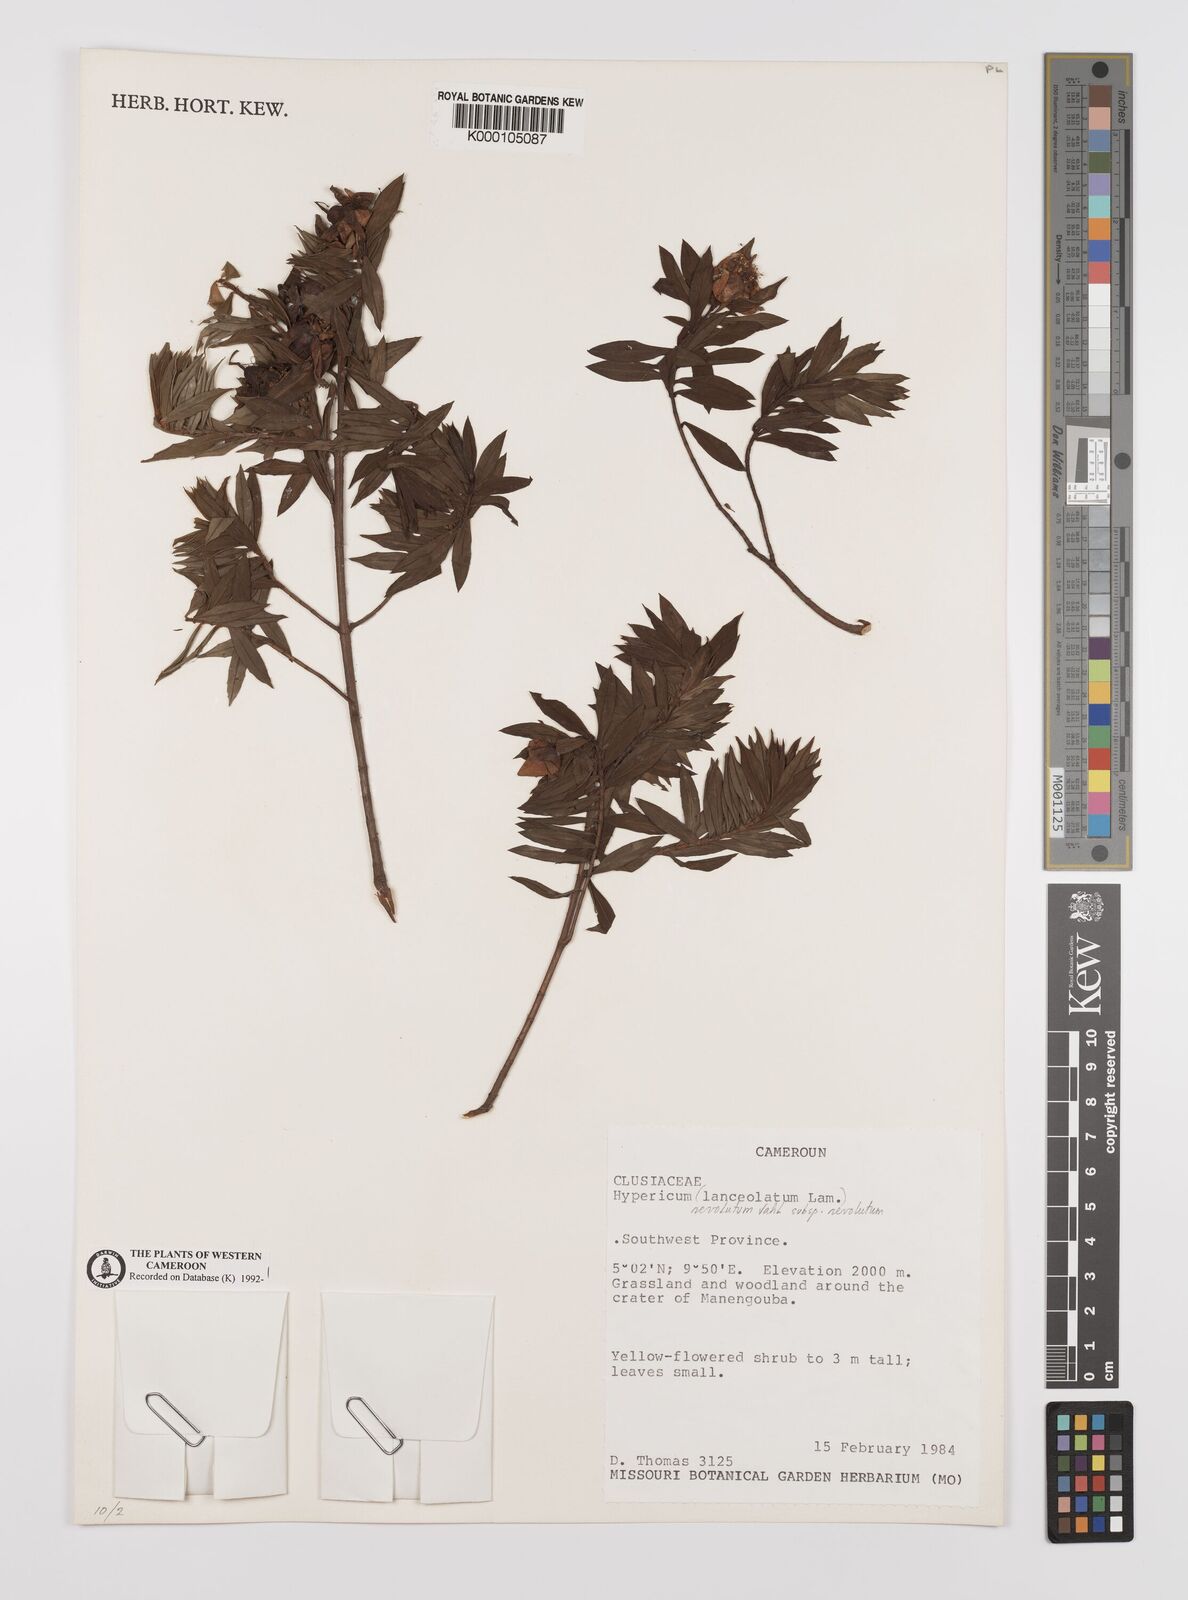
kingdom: Plantae
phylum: Tracheophyta
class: Magnoliopsida
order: Malpighiales
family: Hypericaceae
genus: Hypericum
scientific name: Hypericum revolutum
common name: Curry bush
